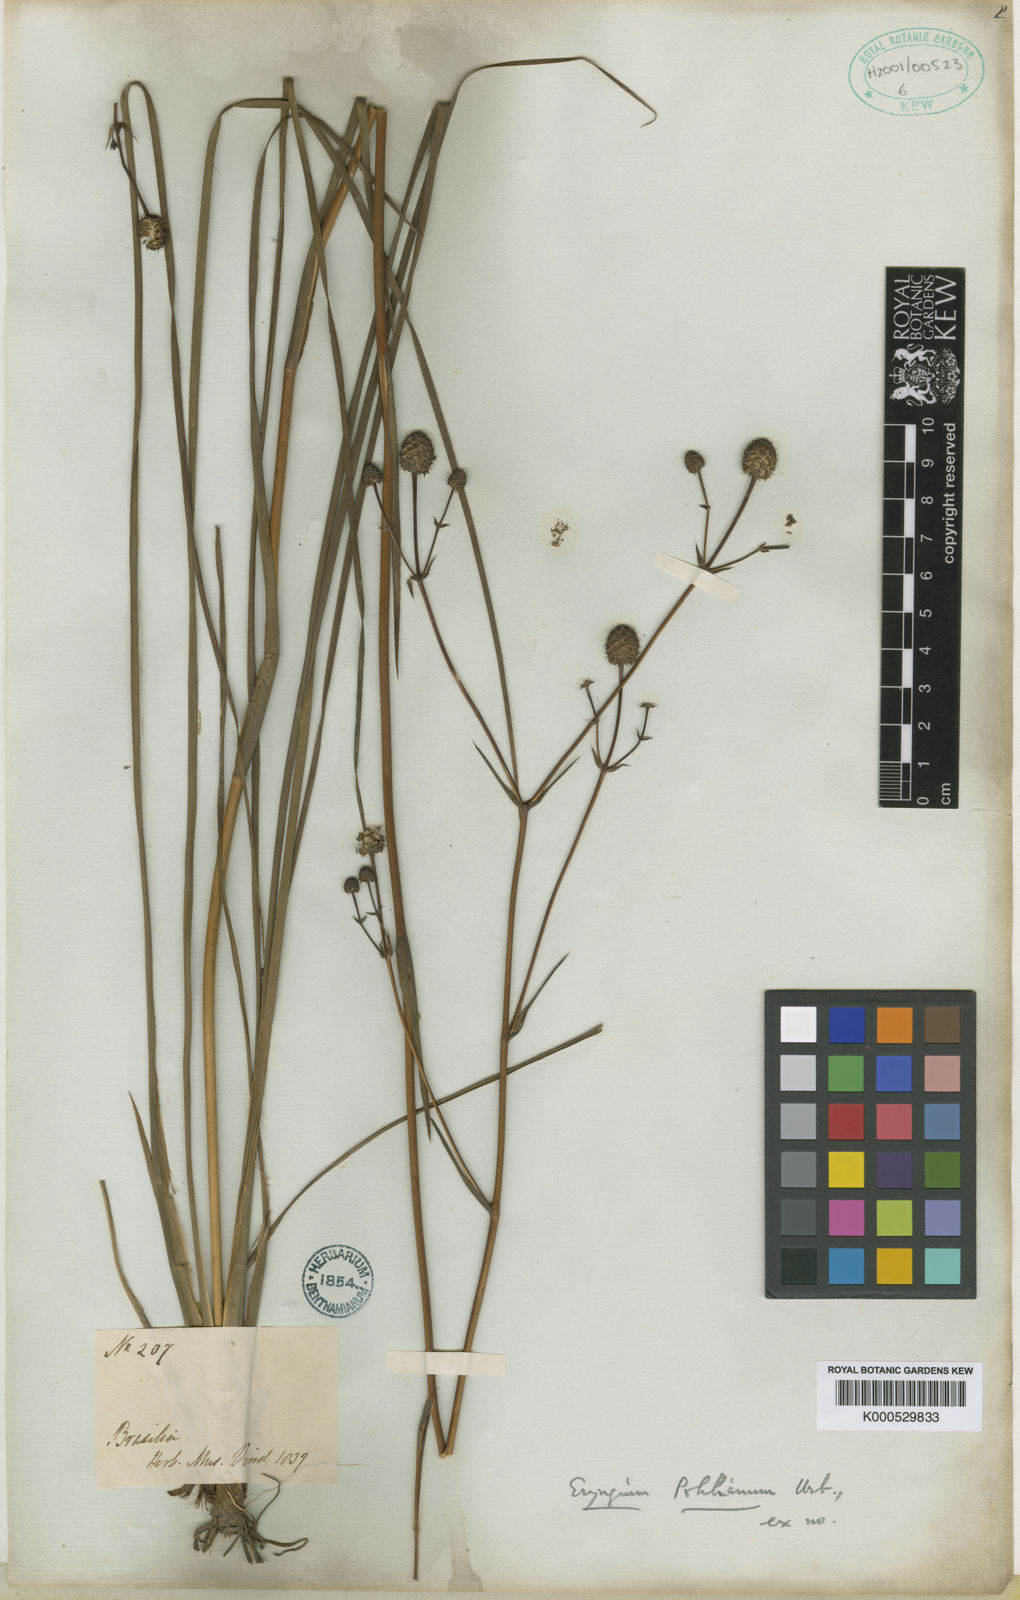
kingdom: Plantae
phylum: Tracheophyta
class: Magnoliopsida
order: Apiales
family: Apiaceae
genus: Eryngium
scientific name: Eryngium pohlianum
